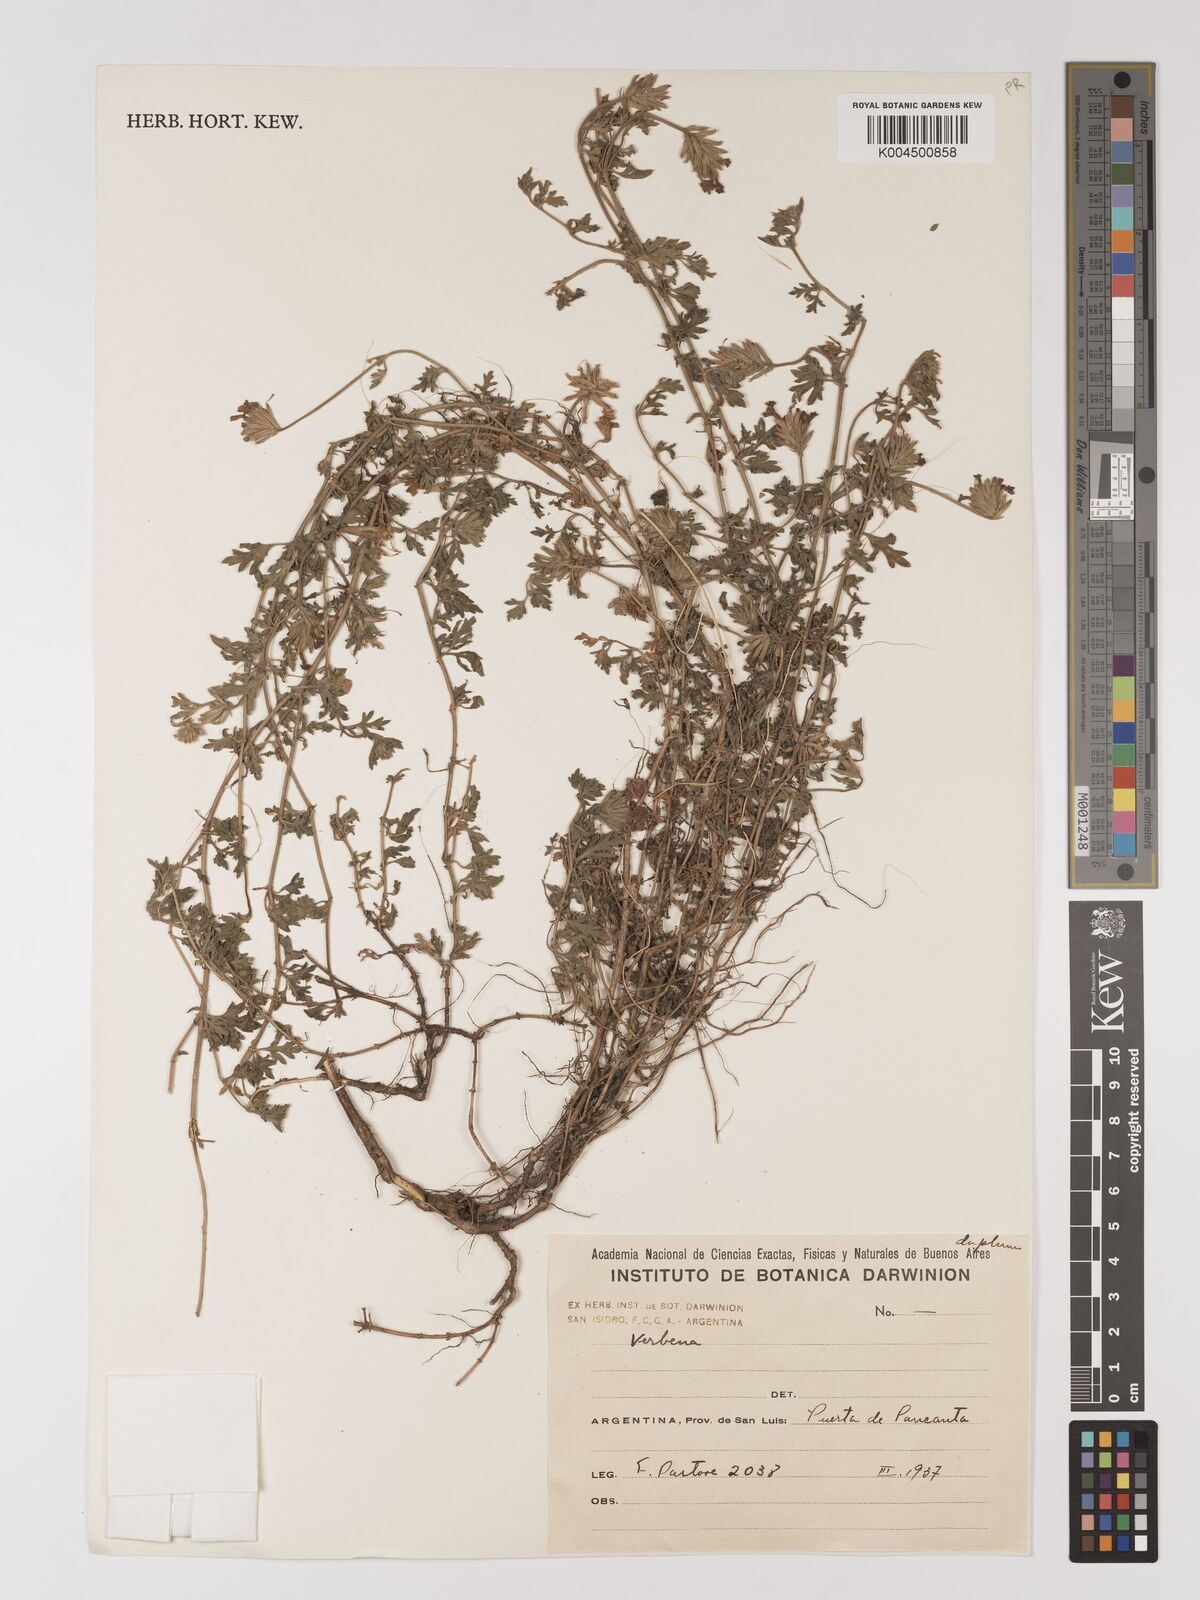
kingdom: Plantae
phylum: Tracheophyta
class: Magnoliopsida
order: Lamiales
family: Verbenaceae
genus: Verbena
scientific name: Verbena
